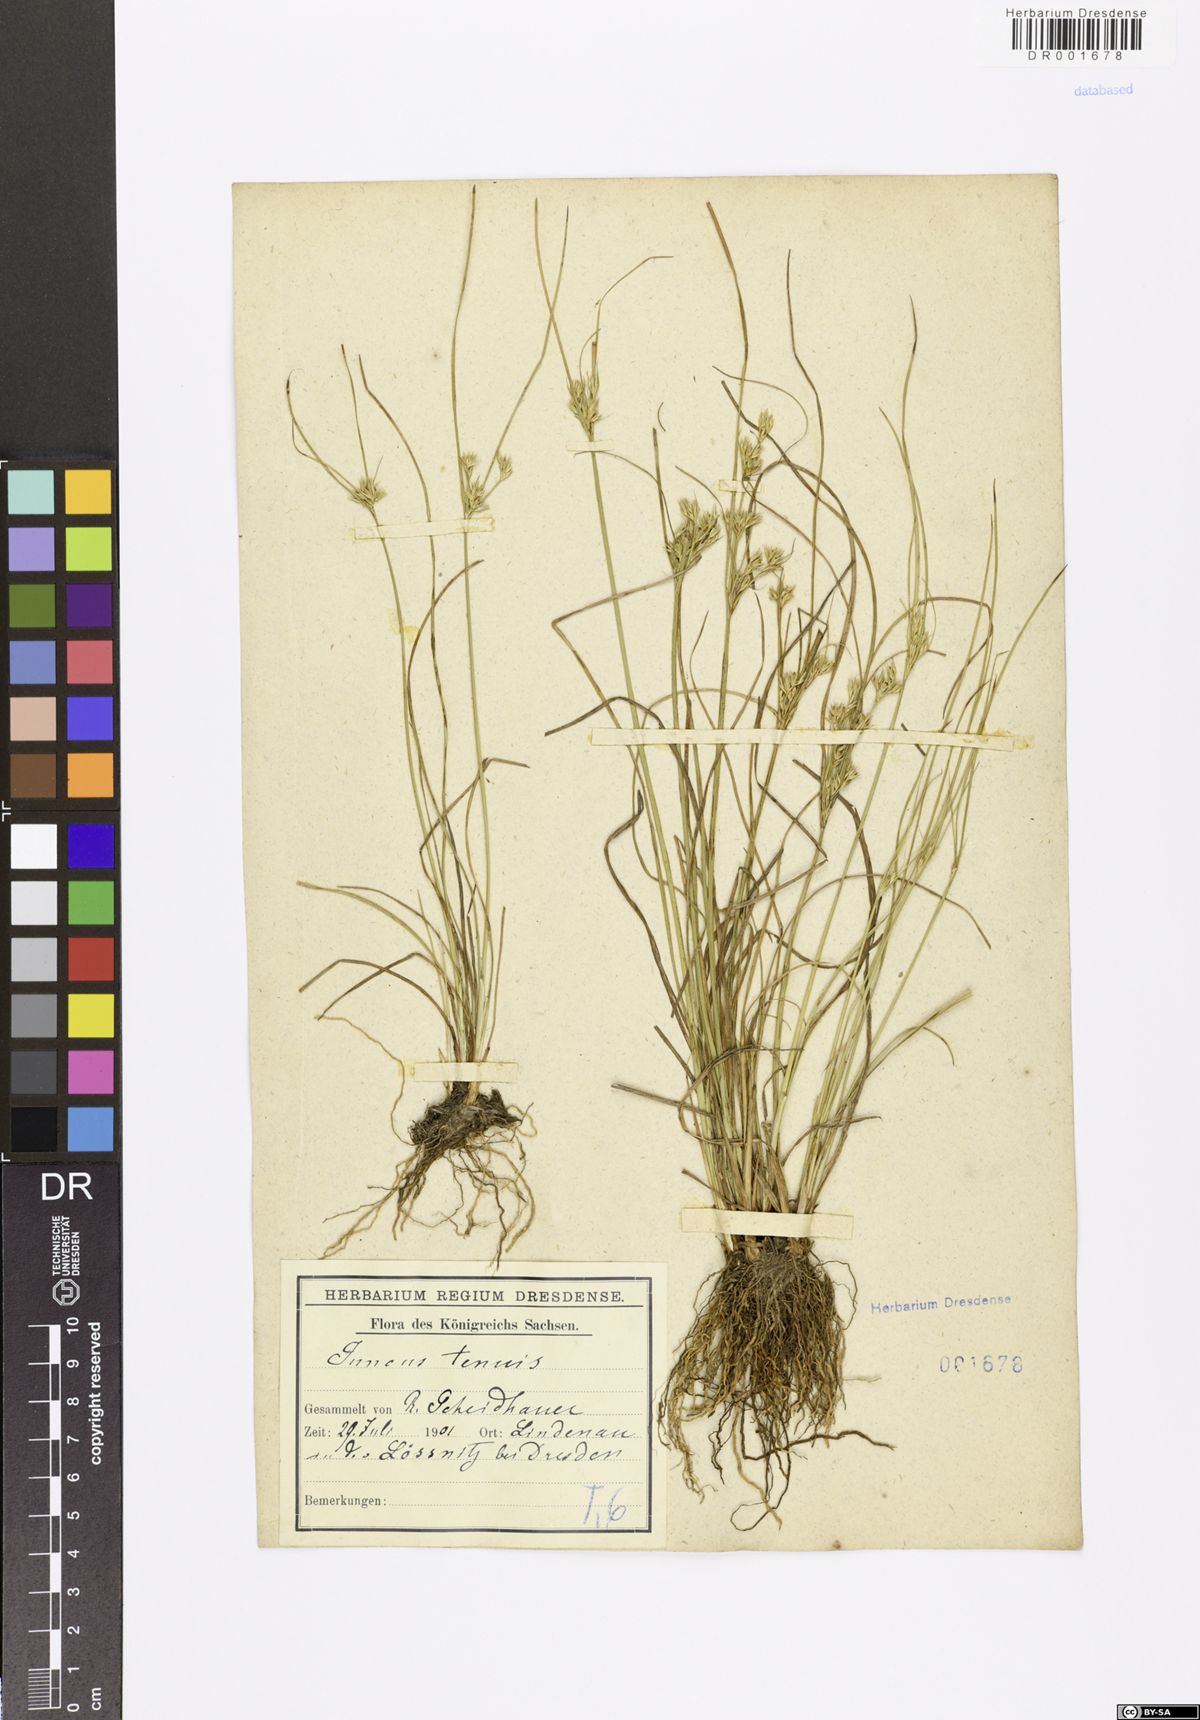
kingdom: Plantae
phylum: Tracheophyta
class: Liliopsida
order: Poales
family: Juncaceae
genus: Juncus
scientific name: Juncus tenuis
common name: Slender rush
